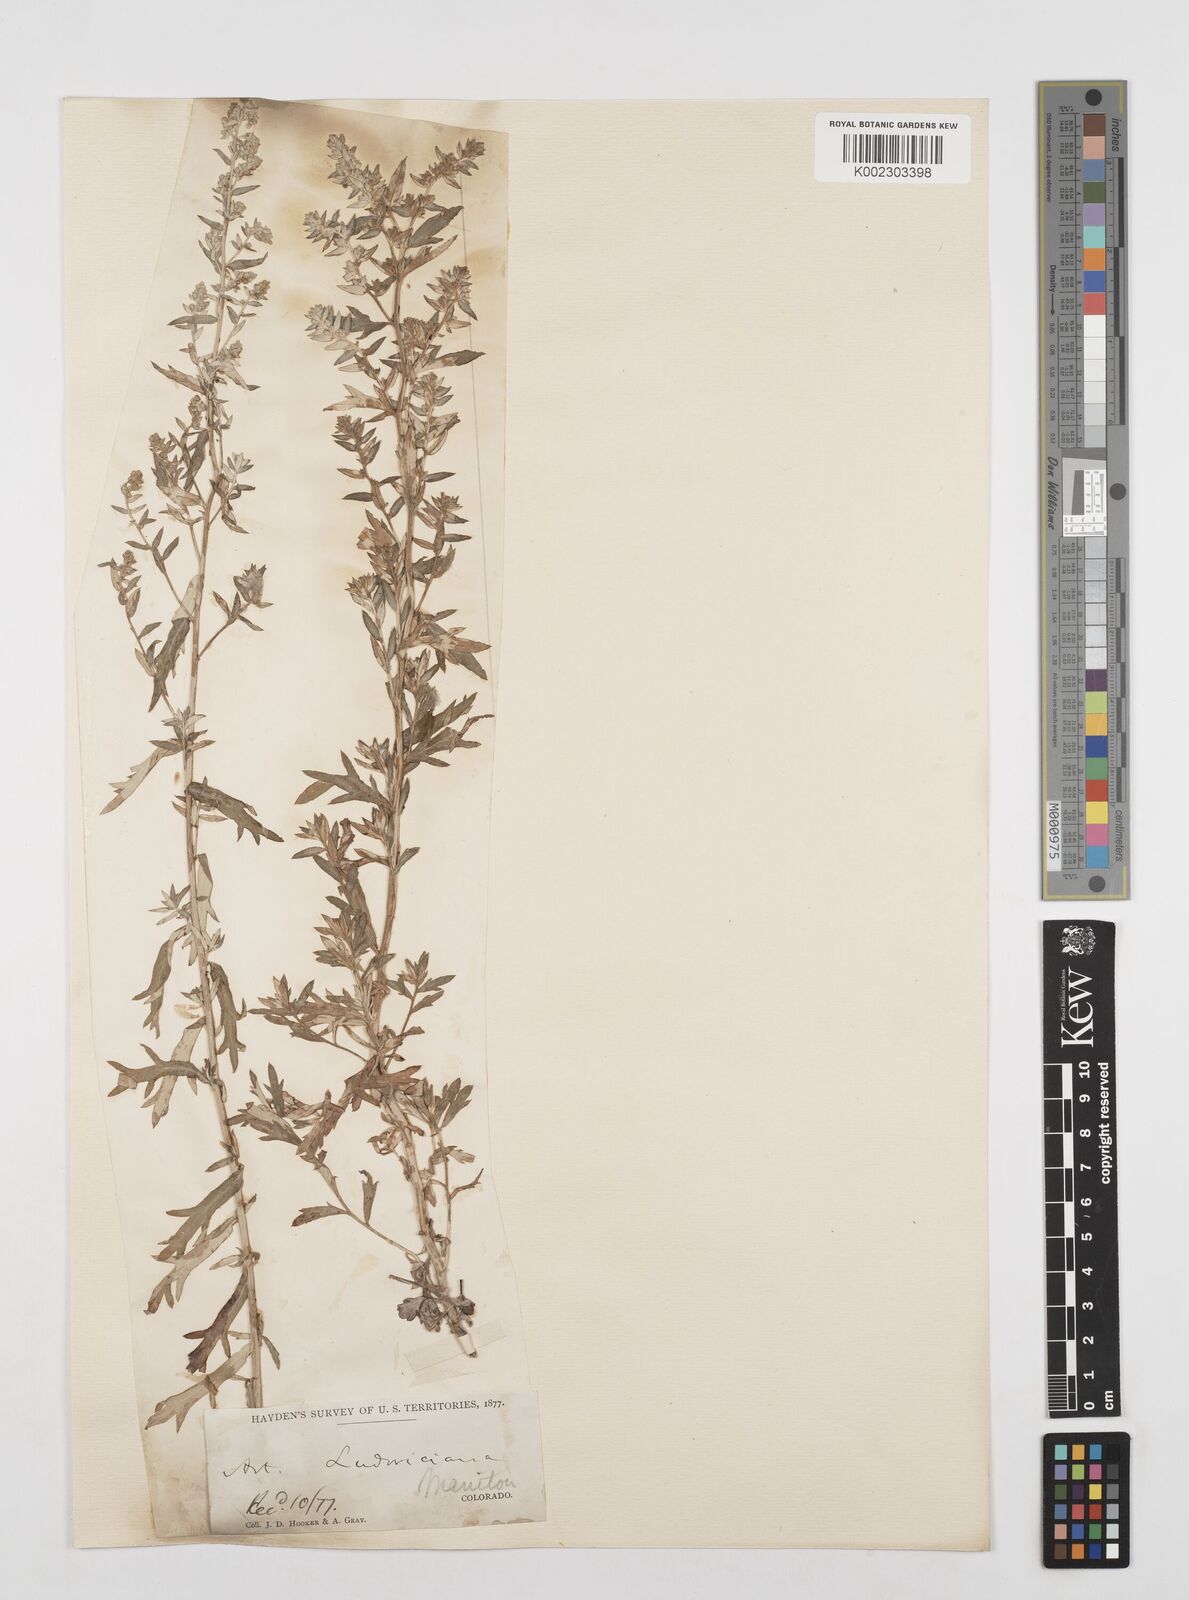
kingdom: Plantae
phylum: Tracheophyta
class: Magnoliopsida
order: Asterales
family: Asteraceae
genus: Artemisia
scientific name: Artemisia
